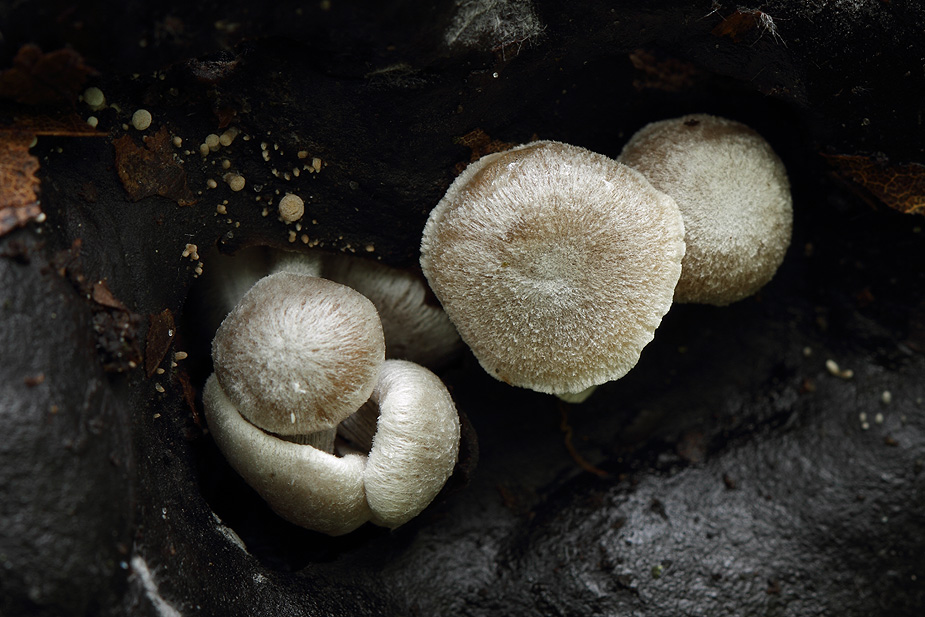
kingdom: Fungi
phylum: Basidiomycota
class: Agaricomycetes
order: Agaricales
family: Lyophyllaceae
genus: Asterophora
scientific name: Asterophora parasitica
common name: grå snyltehat
